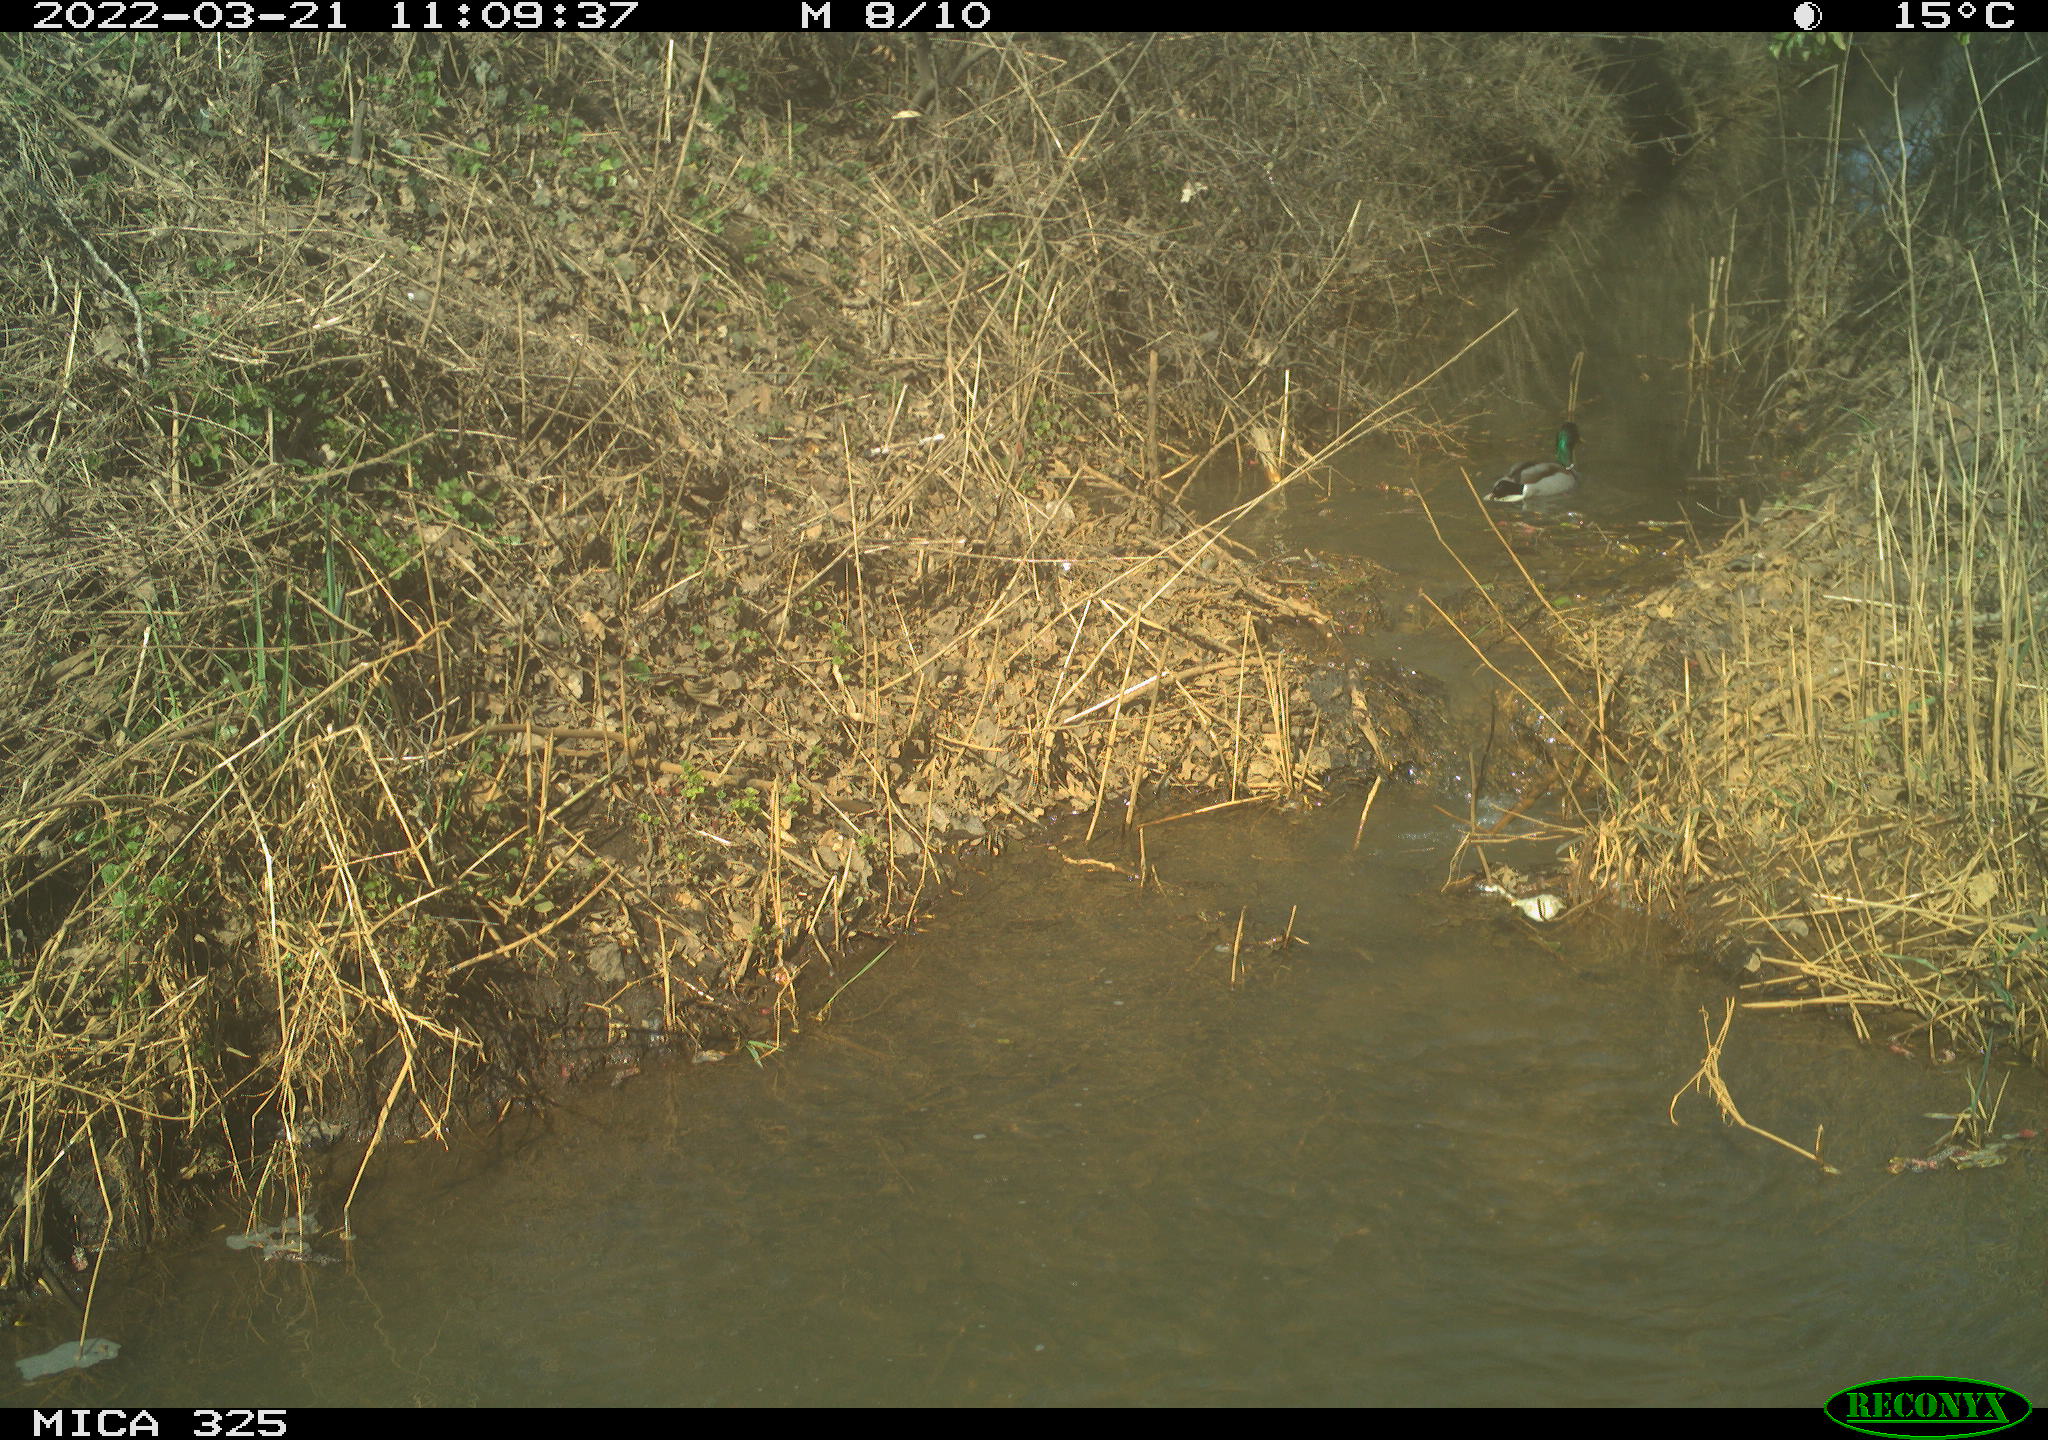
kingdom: Animalia
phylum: Chordata
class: Aves
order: Anseriformes
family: Anatidae
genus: Anas
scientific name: Anas platyrhynchos
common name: Mallard
